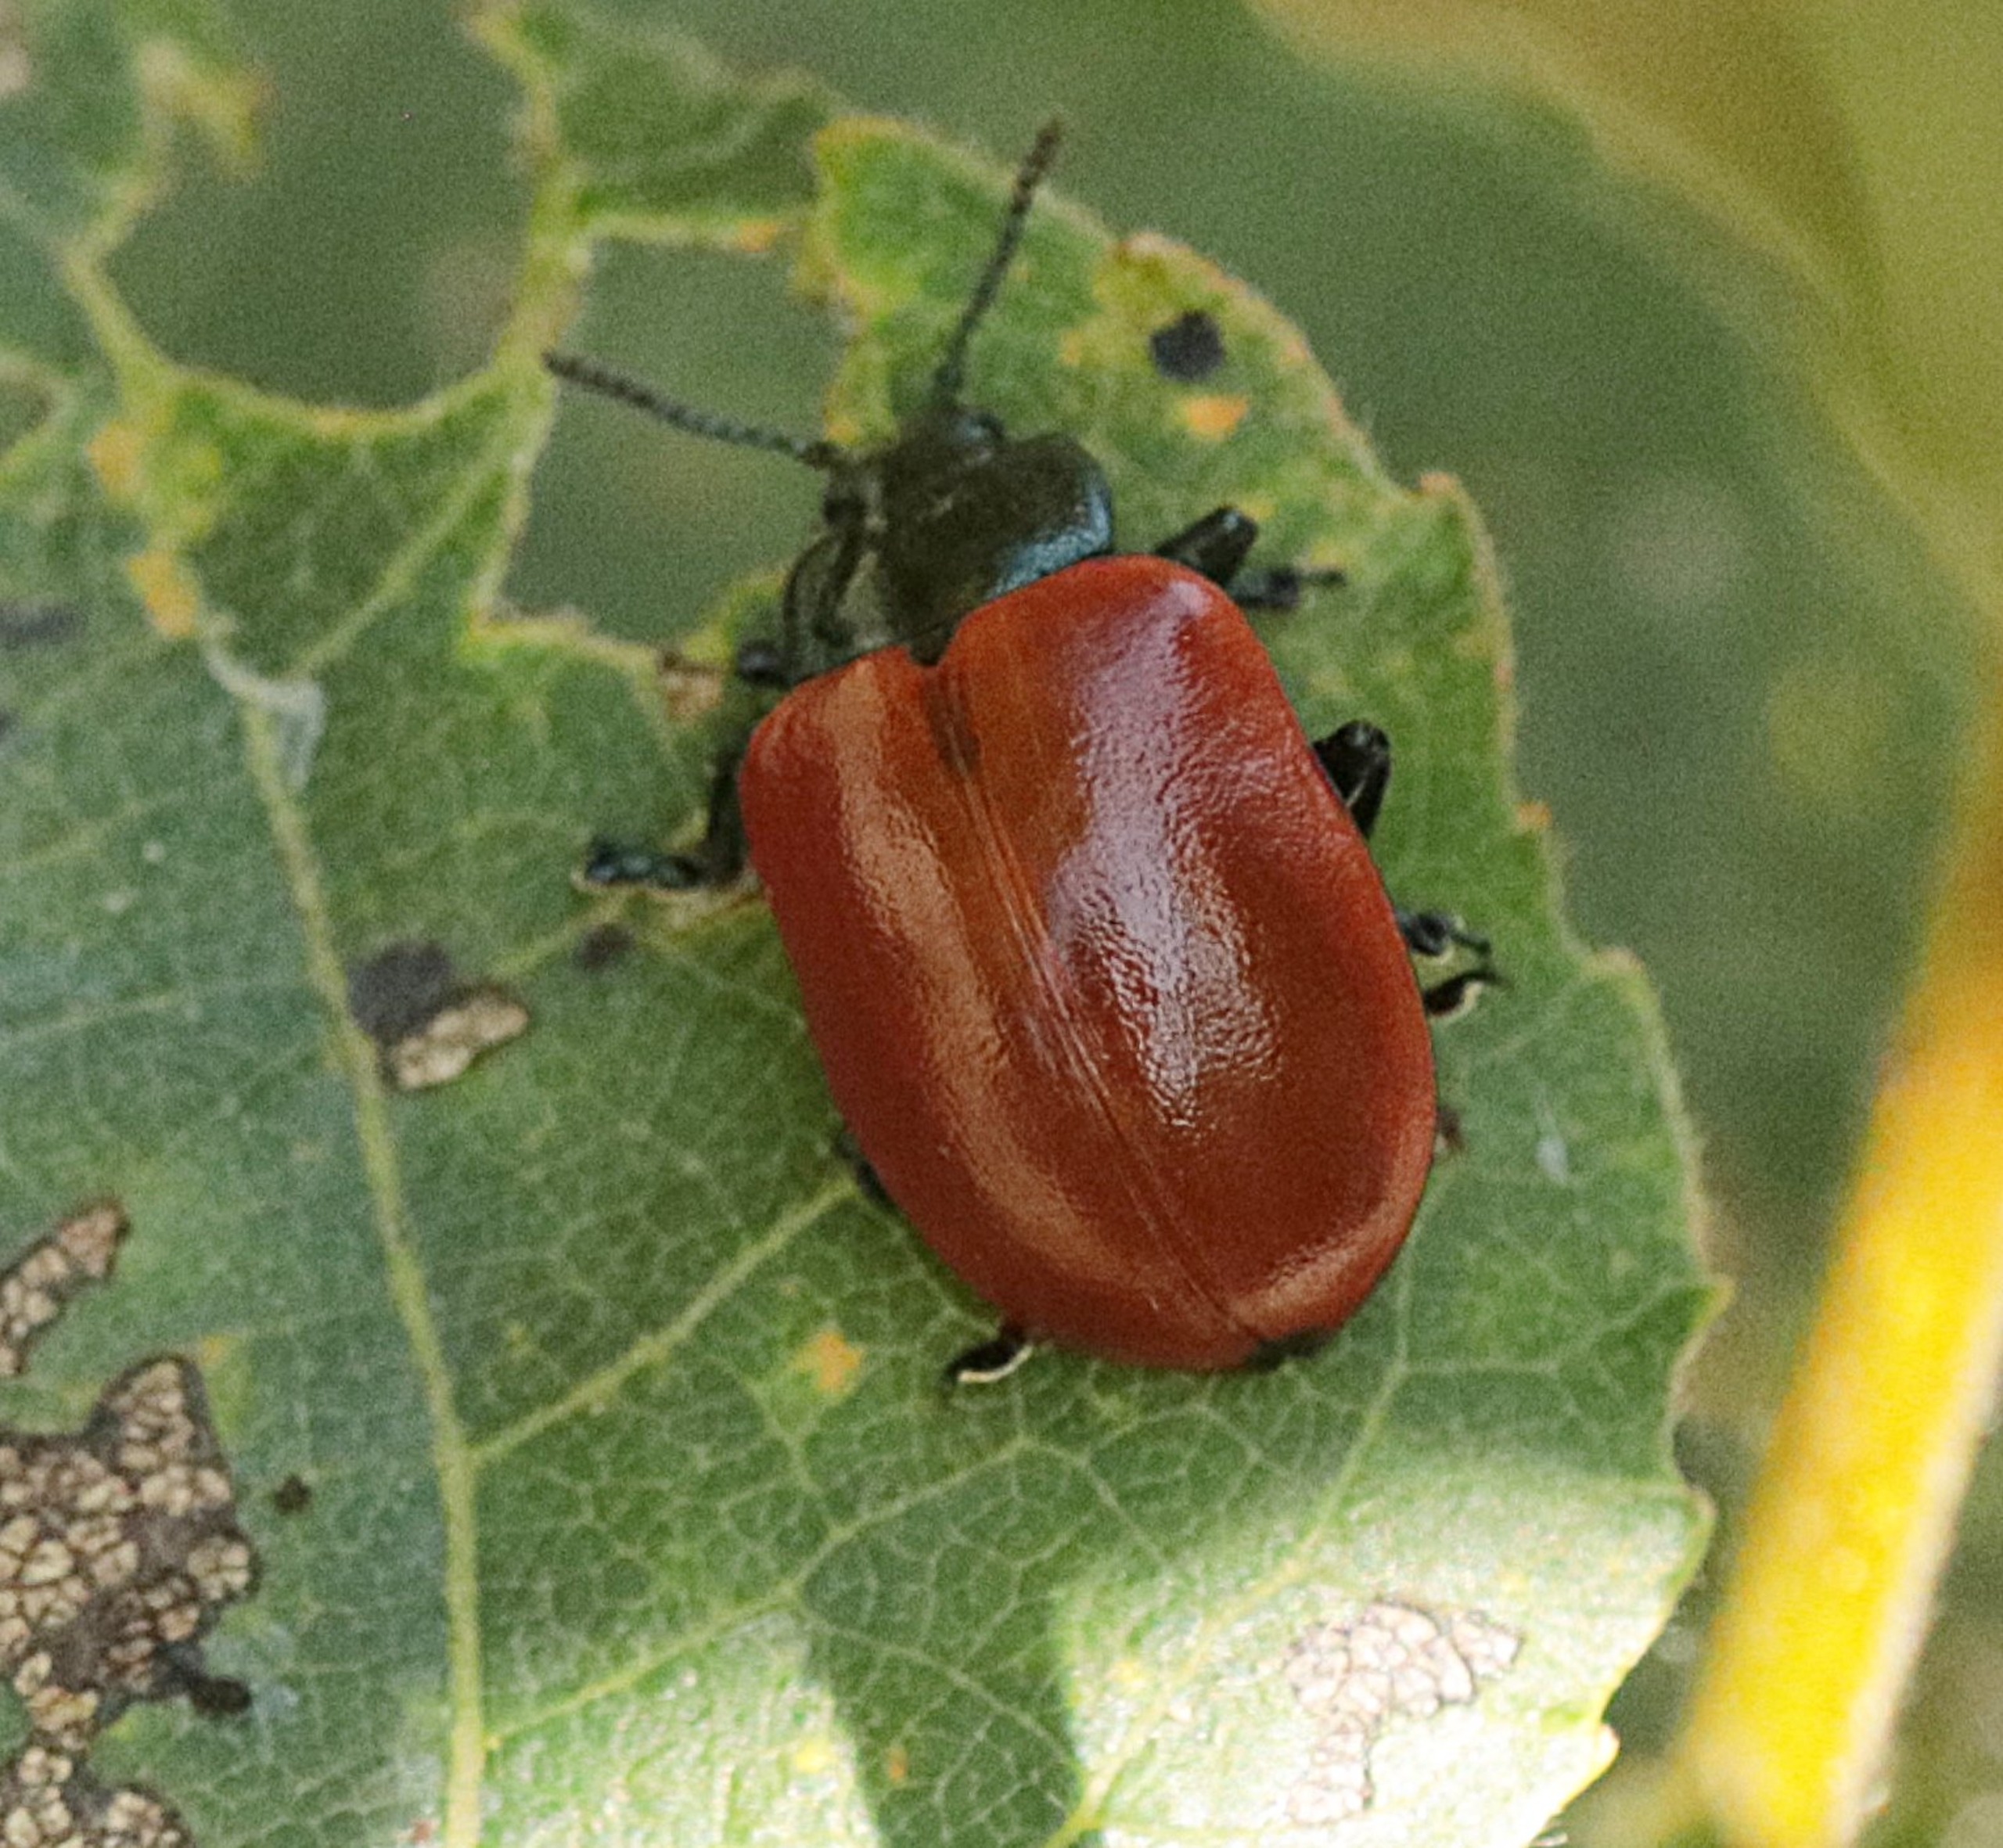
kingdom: Animalia
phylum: Arthropoda
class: Insecta
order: Coleoptera
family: Chrysomelidae
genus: Chrysomela
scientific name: Chrysomela populi
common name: Poppelbladbille
